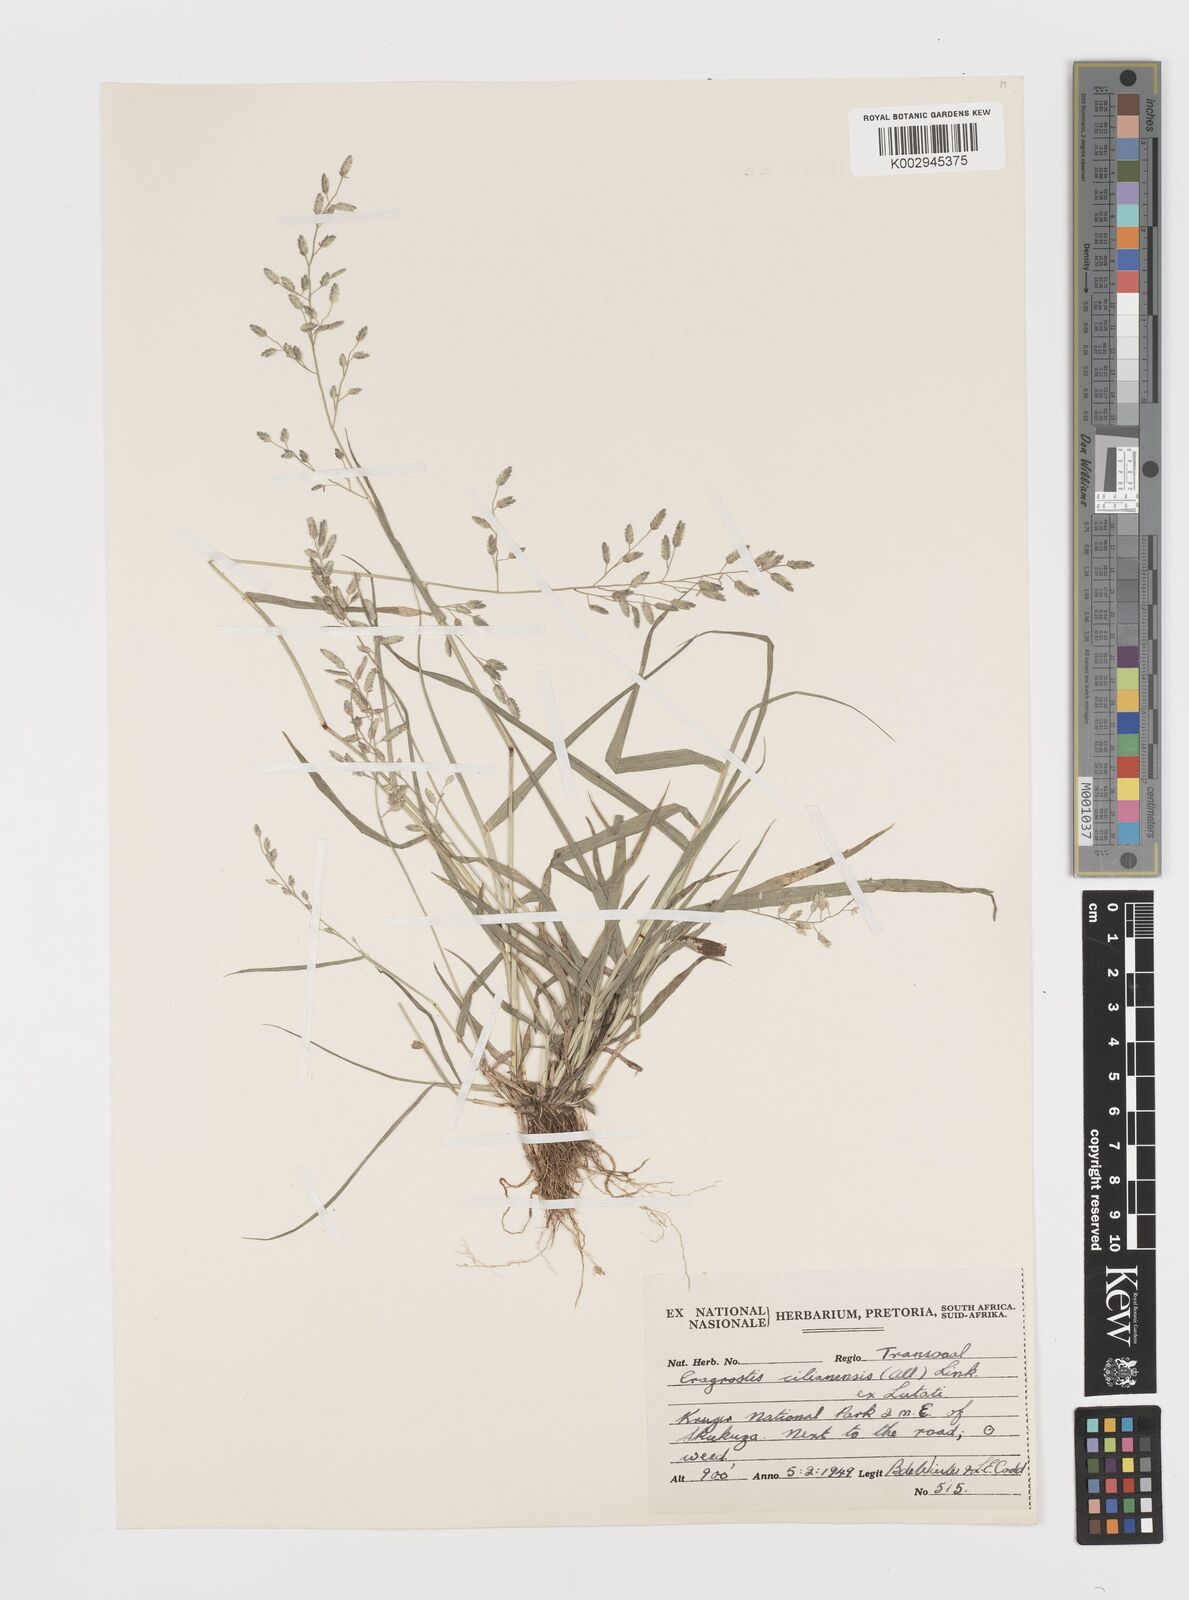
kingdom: Plantae
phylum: Tracheophyta
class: Liliopsida
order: Poales
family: Poaceae
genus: Eragrostis
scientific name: Eragrostis cilianensis
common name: Stinkgrass
